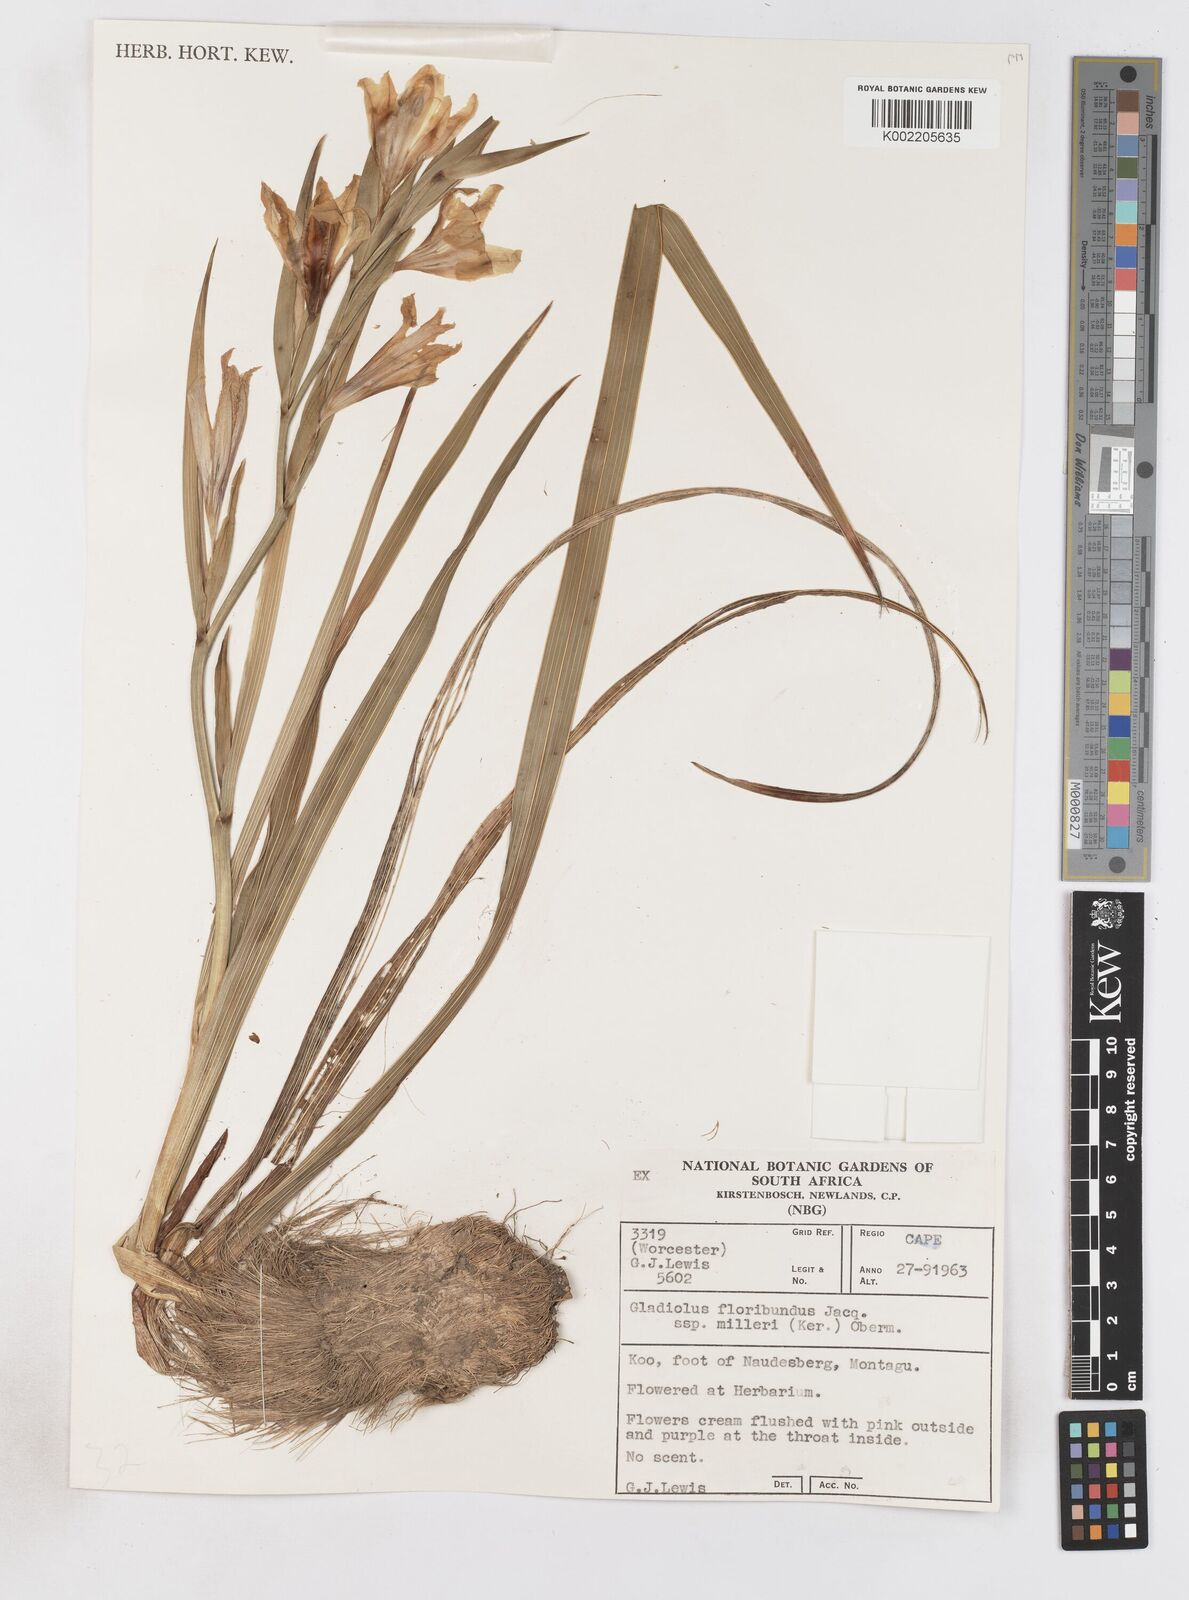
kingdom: Plantae
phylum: Tracheophyta
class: Liliopsida
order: Asparagales
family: Iridaceae
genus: Gladiolus
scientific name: Gladiolus grandiflorus
